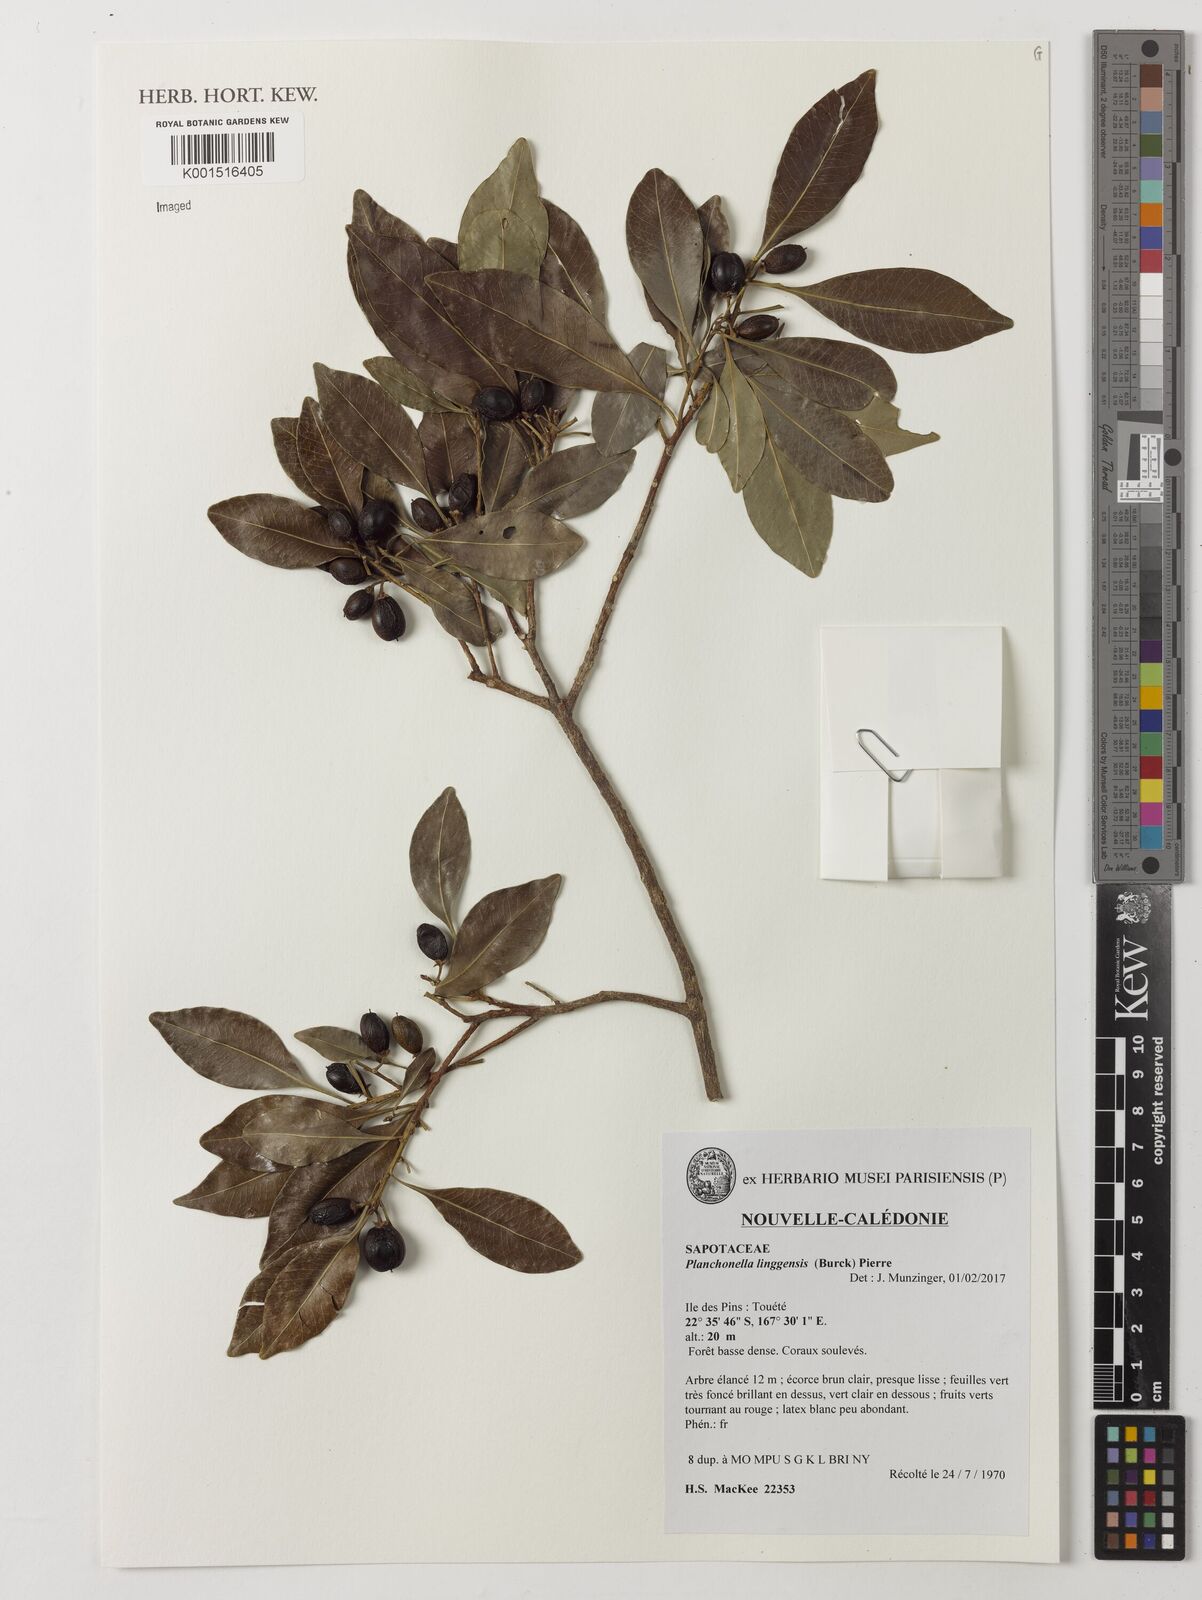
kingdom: Plantae
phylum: Tracheophyta
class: Magnoliopsida
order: Ericales
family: Sapotaceae
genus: Planchonella
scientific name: Planchonella chartacea
